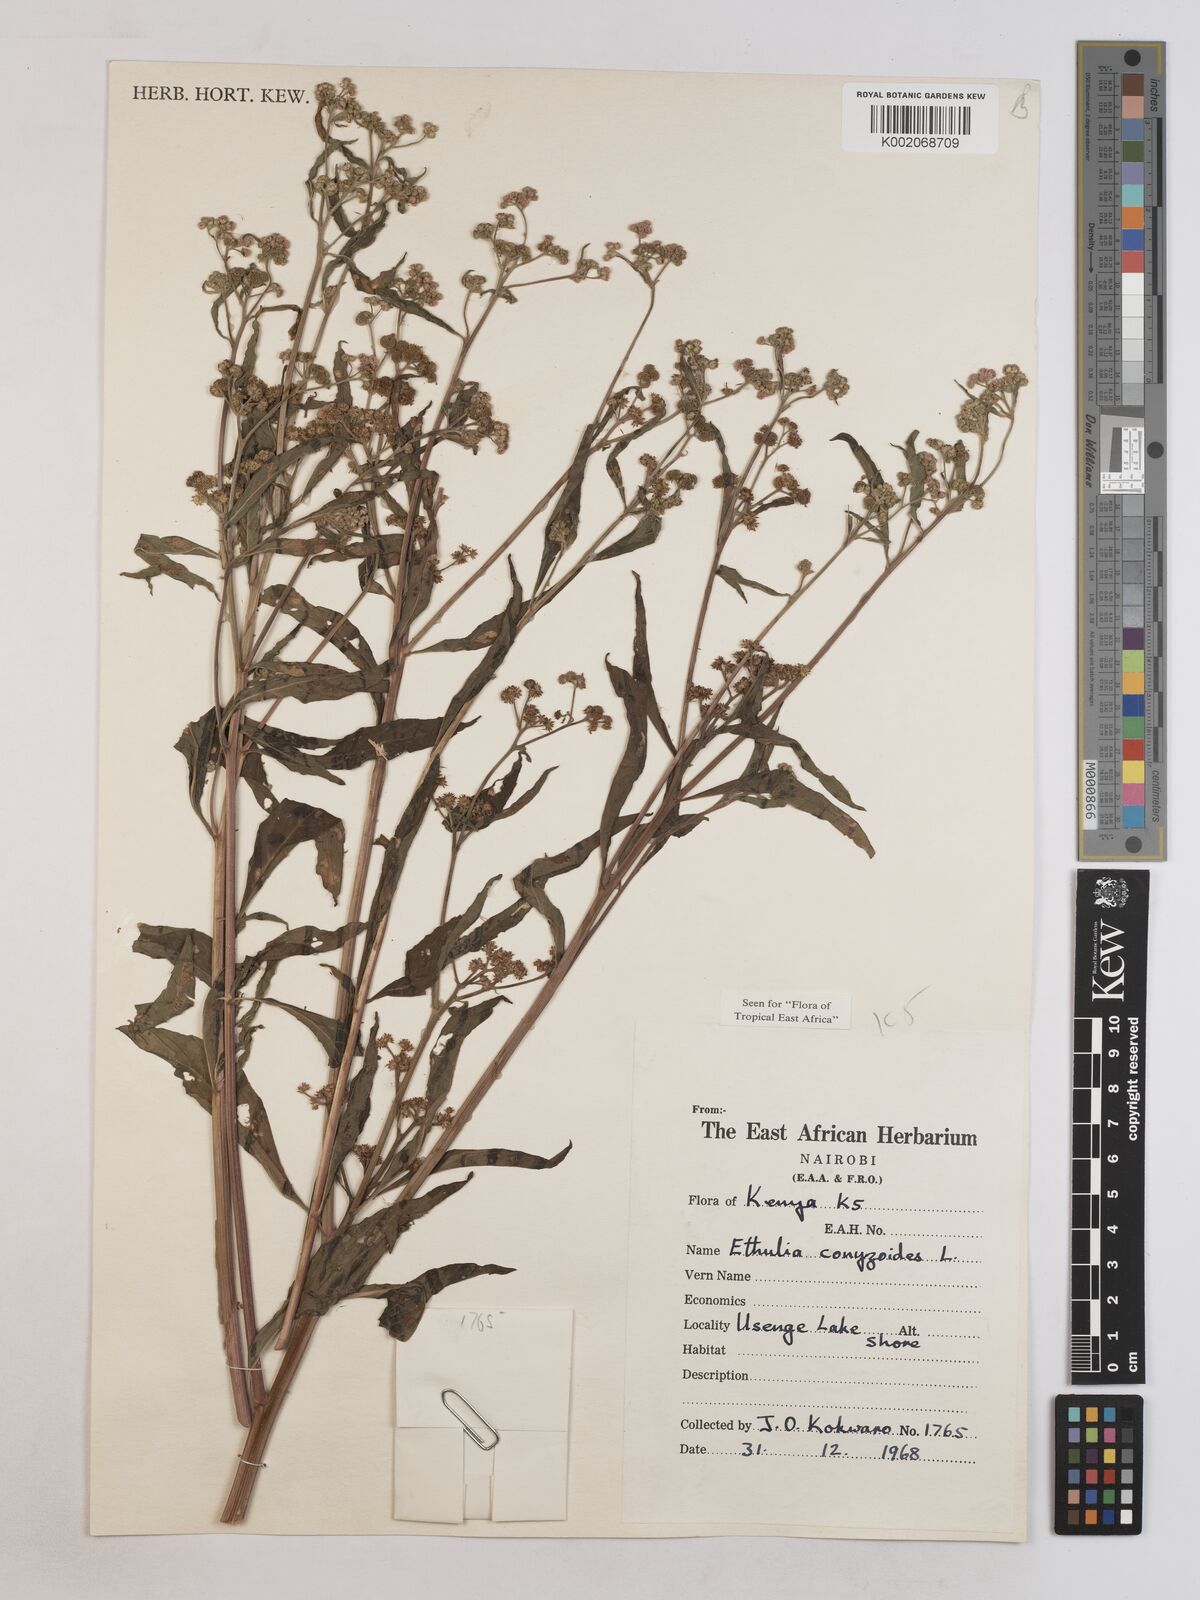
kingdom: Plantae
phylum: Tracheophyta
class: Magnoliopsida
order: Asterales
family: Asteraceae
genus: Ethulia
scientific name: Ethulia
